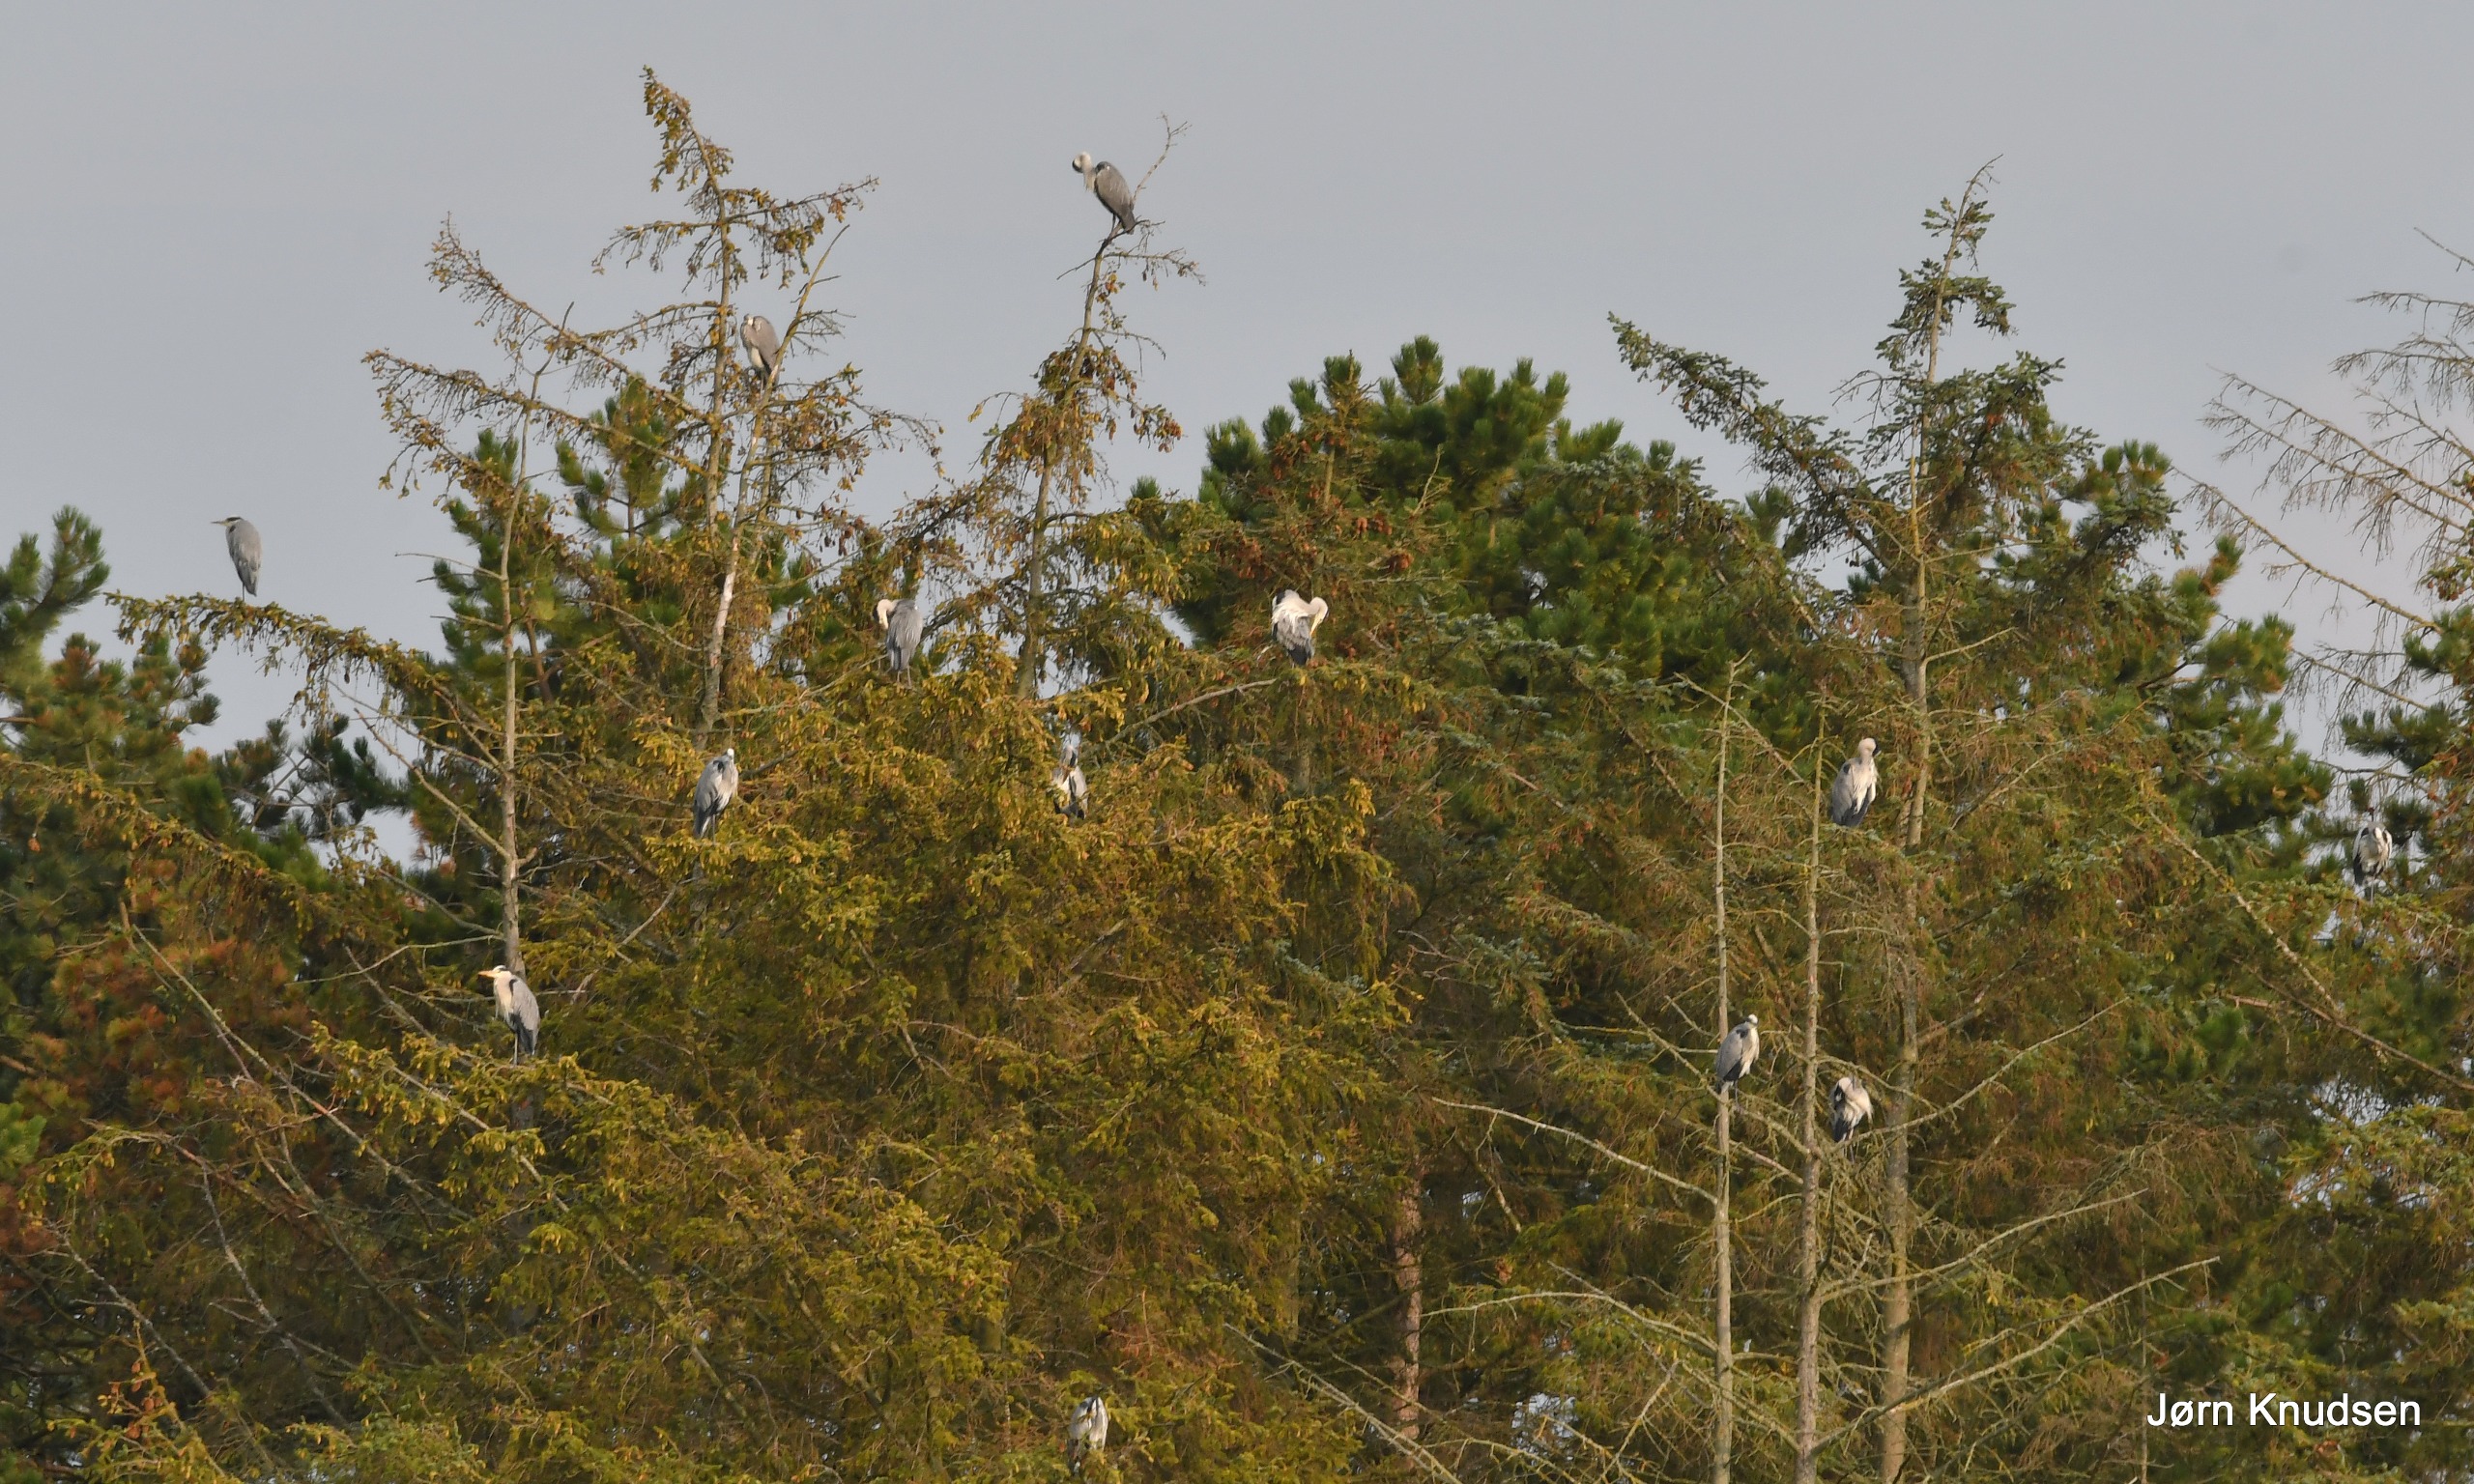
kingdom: Animalia
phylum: Chordata
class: Aves
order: Pelecaniformes
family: Ardeidae
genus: Ardea
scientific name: Ardea cinerea
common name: Fiskehejre
